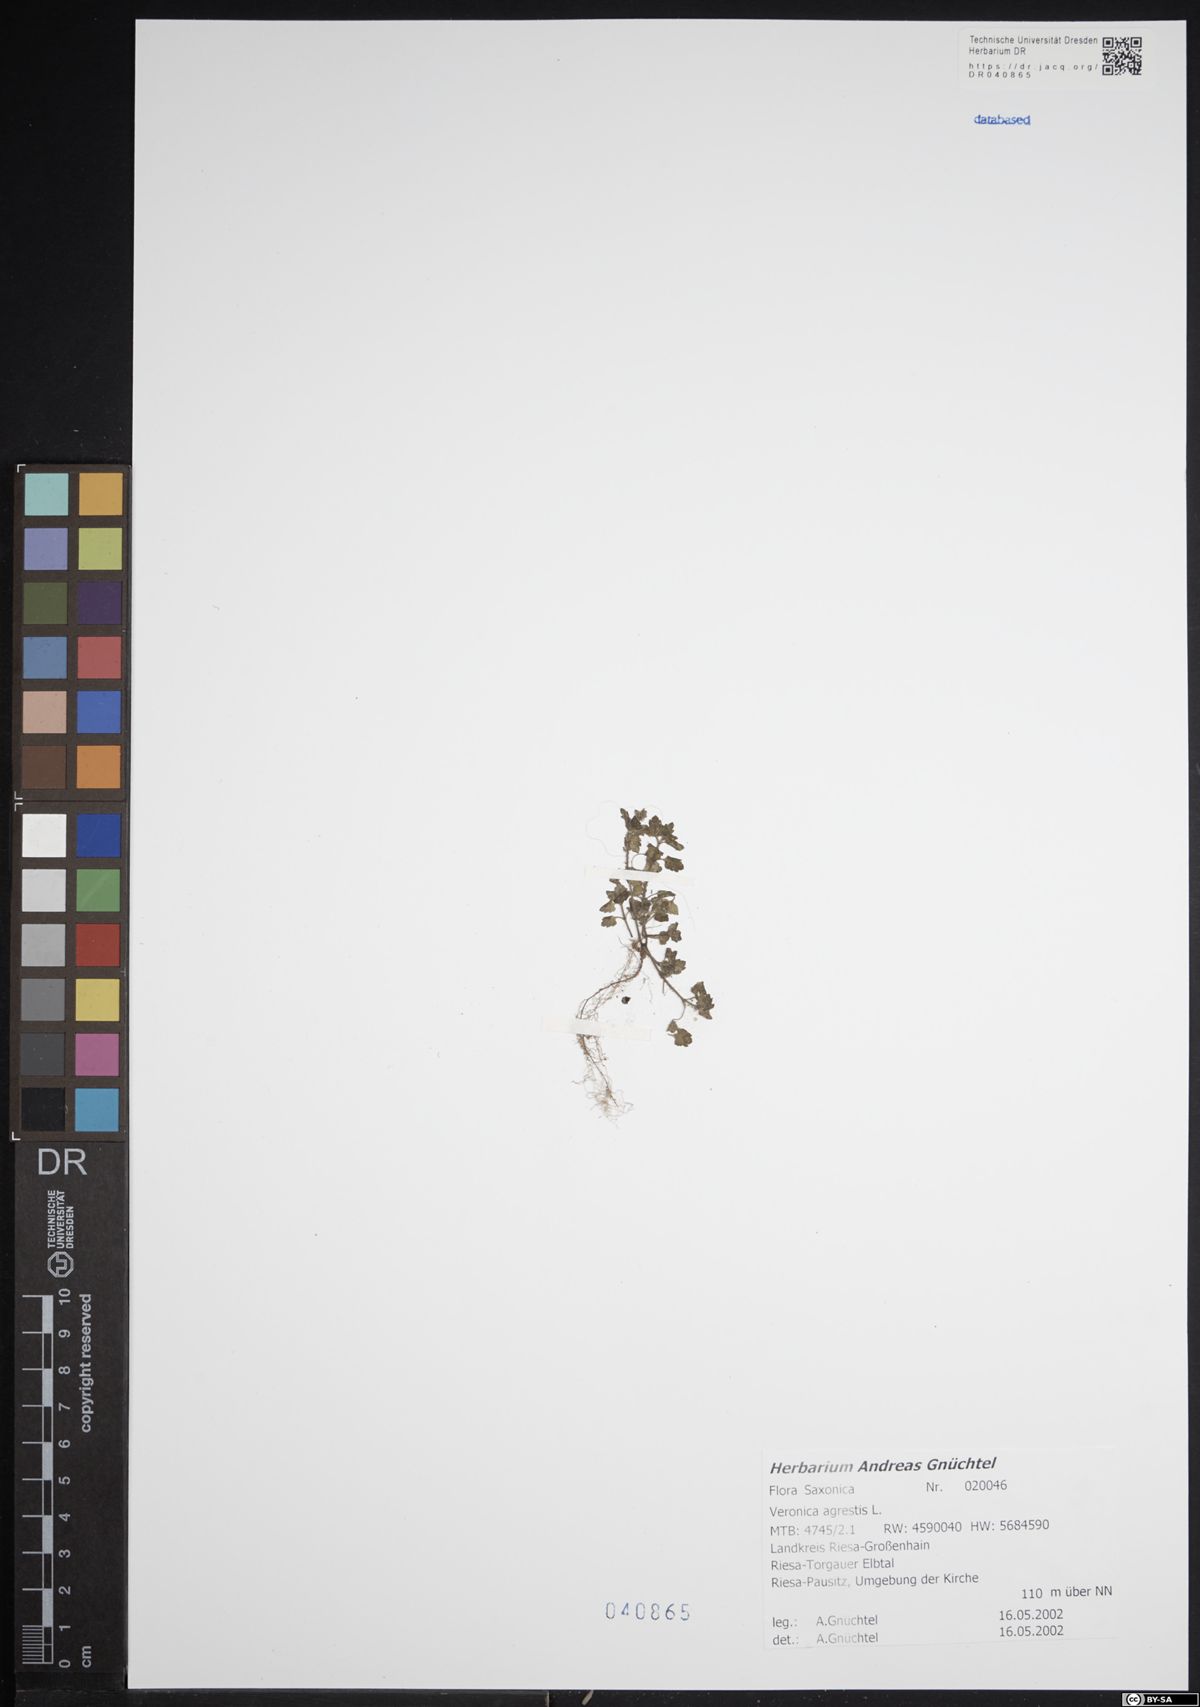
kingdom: Plantae
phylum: Tracheophyta
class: Magnoliopsida
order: Lamiales
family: Plantaginaceae
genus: Veronica
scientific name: Veronica agrestis
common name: Green field-speedwell
